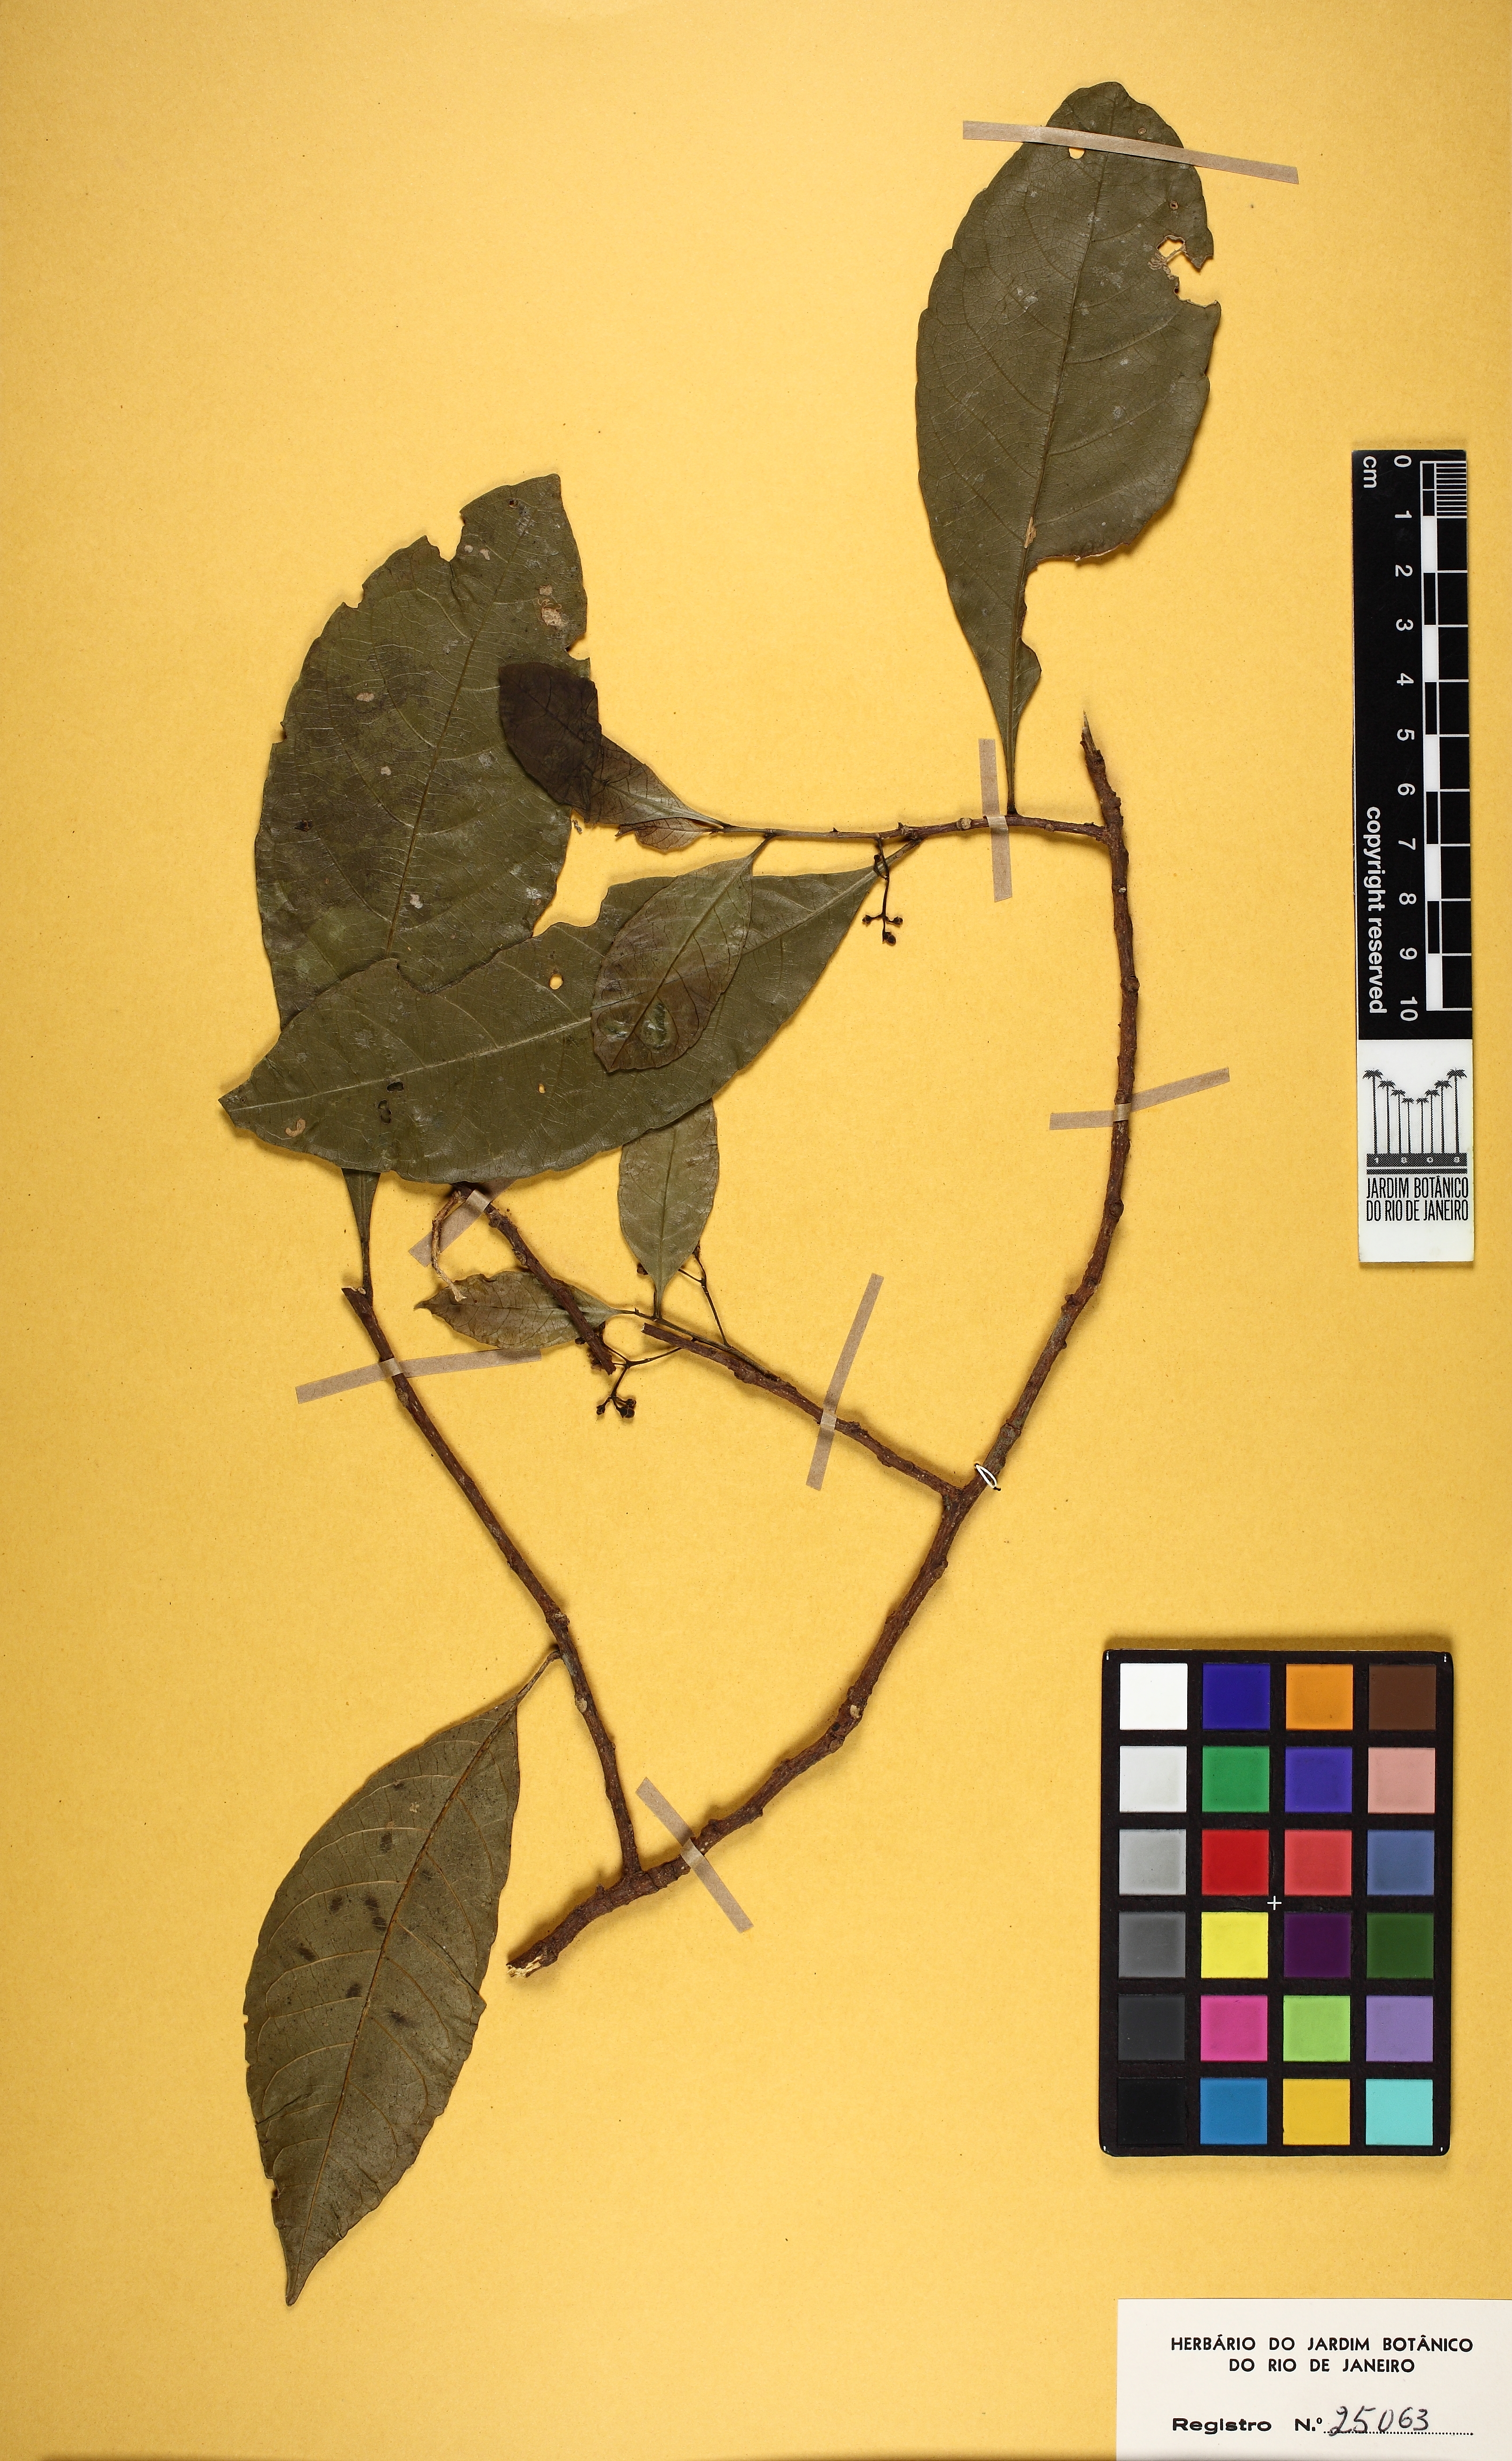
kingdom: Plantae
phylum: Tracheophyta
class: Magnoliopsida
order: Malpighiales
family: Violaceae
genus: Leonia
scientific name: Leonia cymosa
